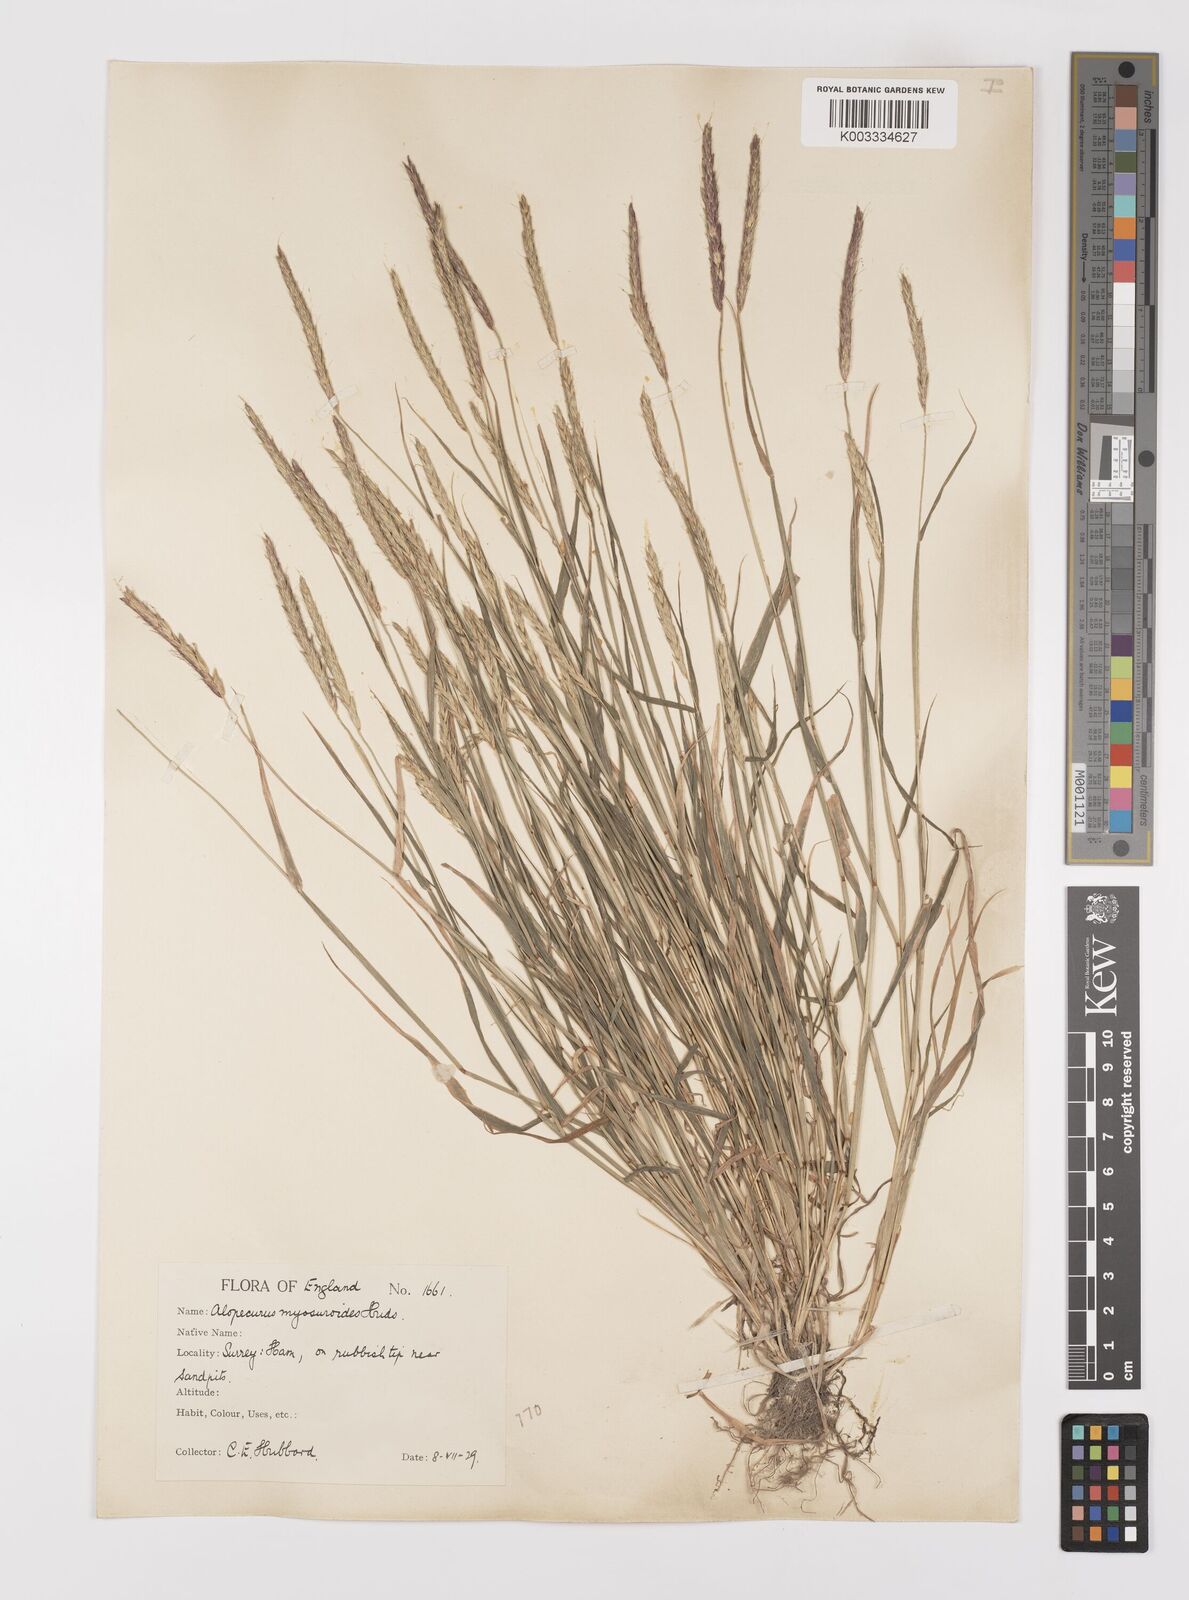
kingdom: Plantae
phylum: Tracheophyta
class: Liliopsida
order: Poales
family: Poaceae
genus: Alopecurus
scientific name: Alopecurus myosuroides
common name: Black-grass
